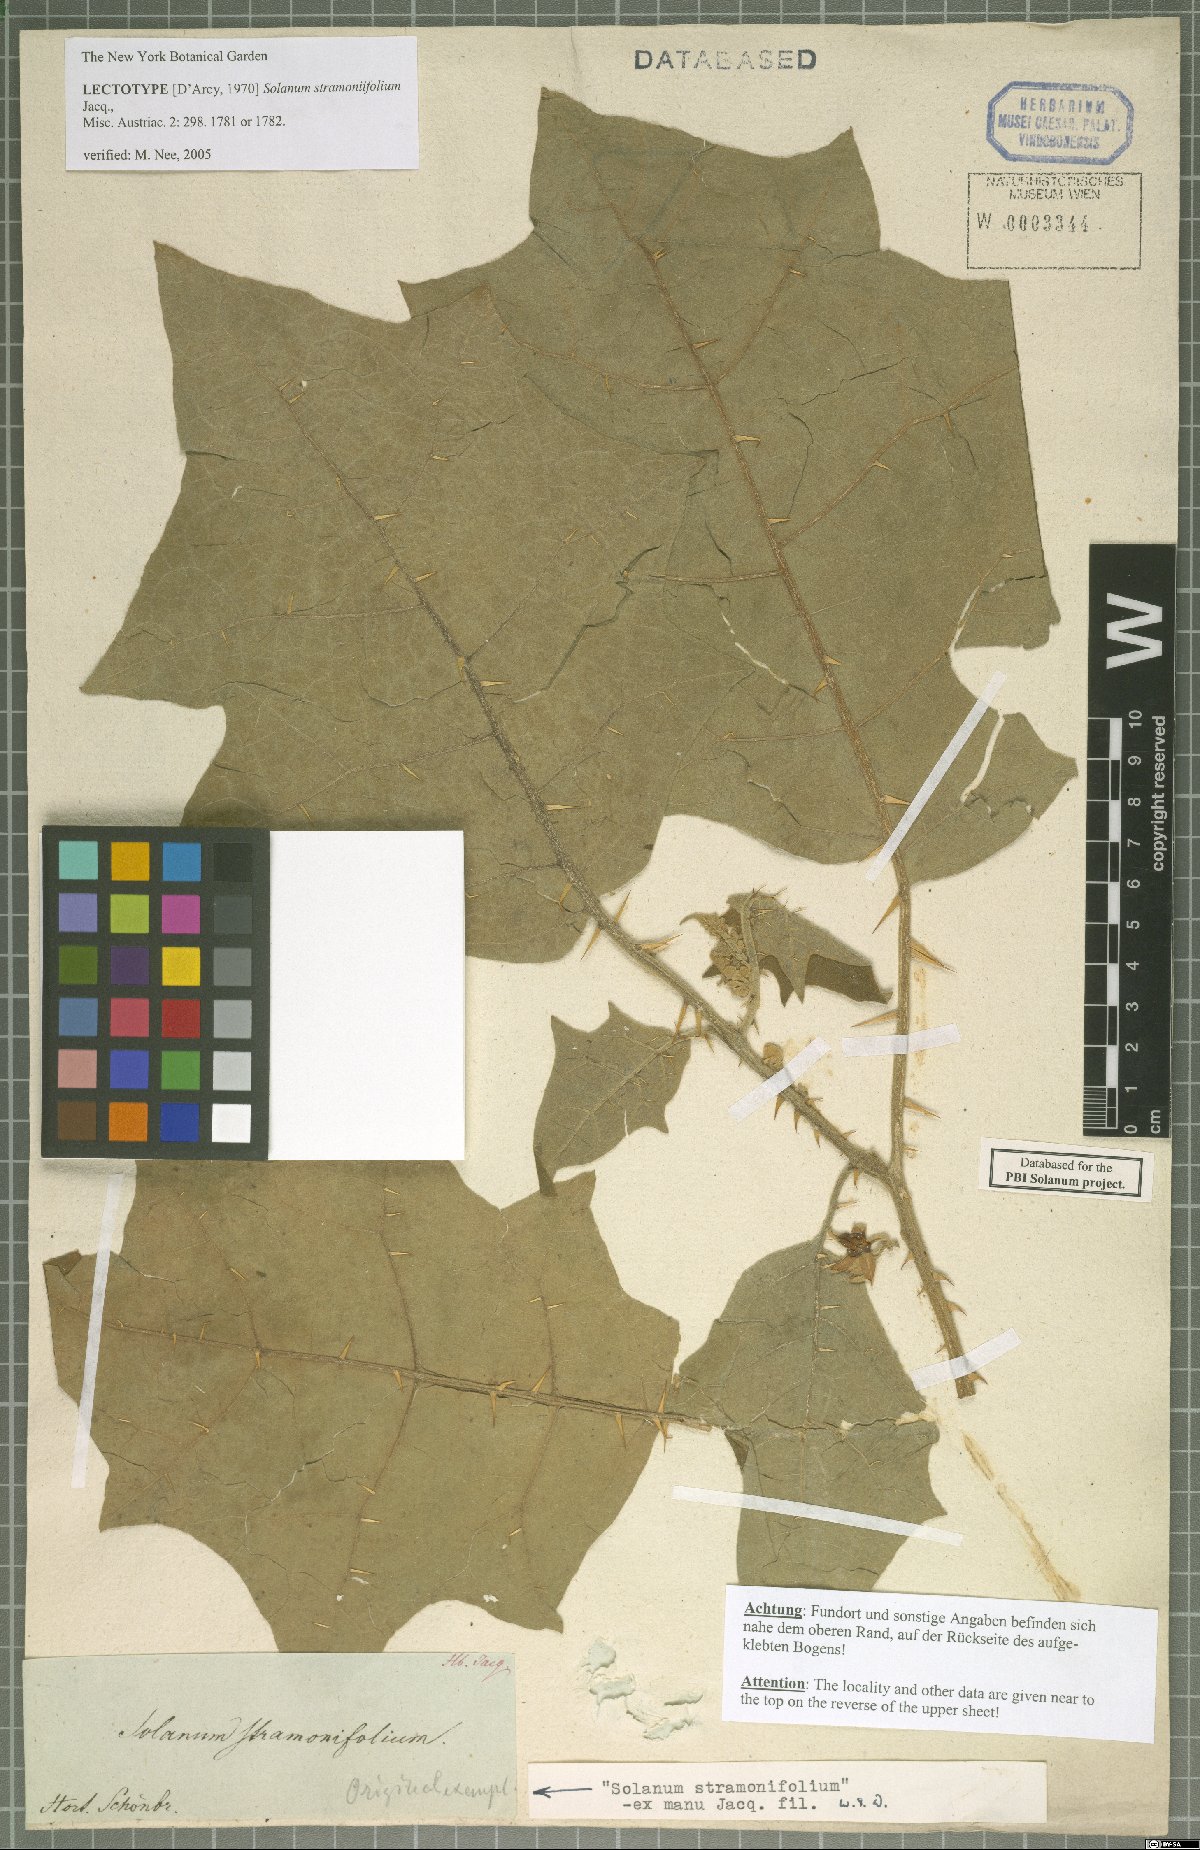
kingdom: Plantae
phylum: Tracheophyta
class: Magnoliopsida
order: Solanales
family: Solanaceae
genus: Solanum
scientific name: Solanum stramonifolium
